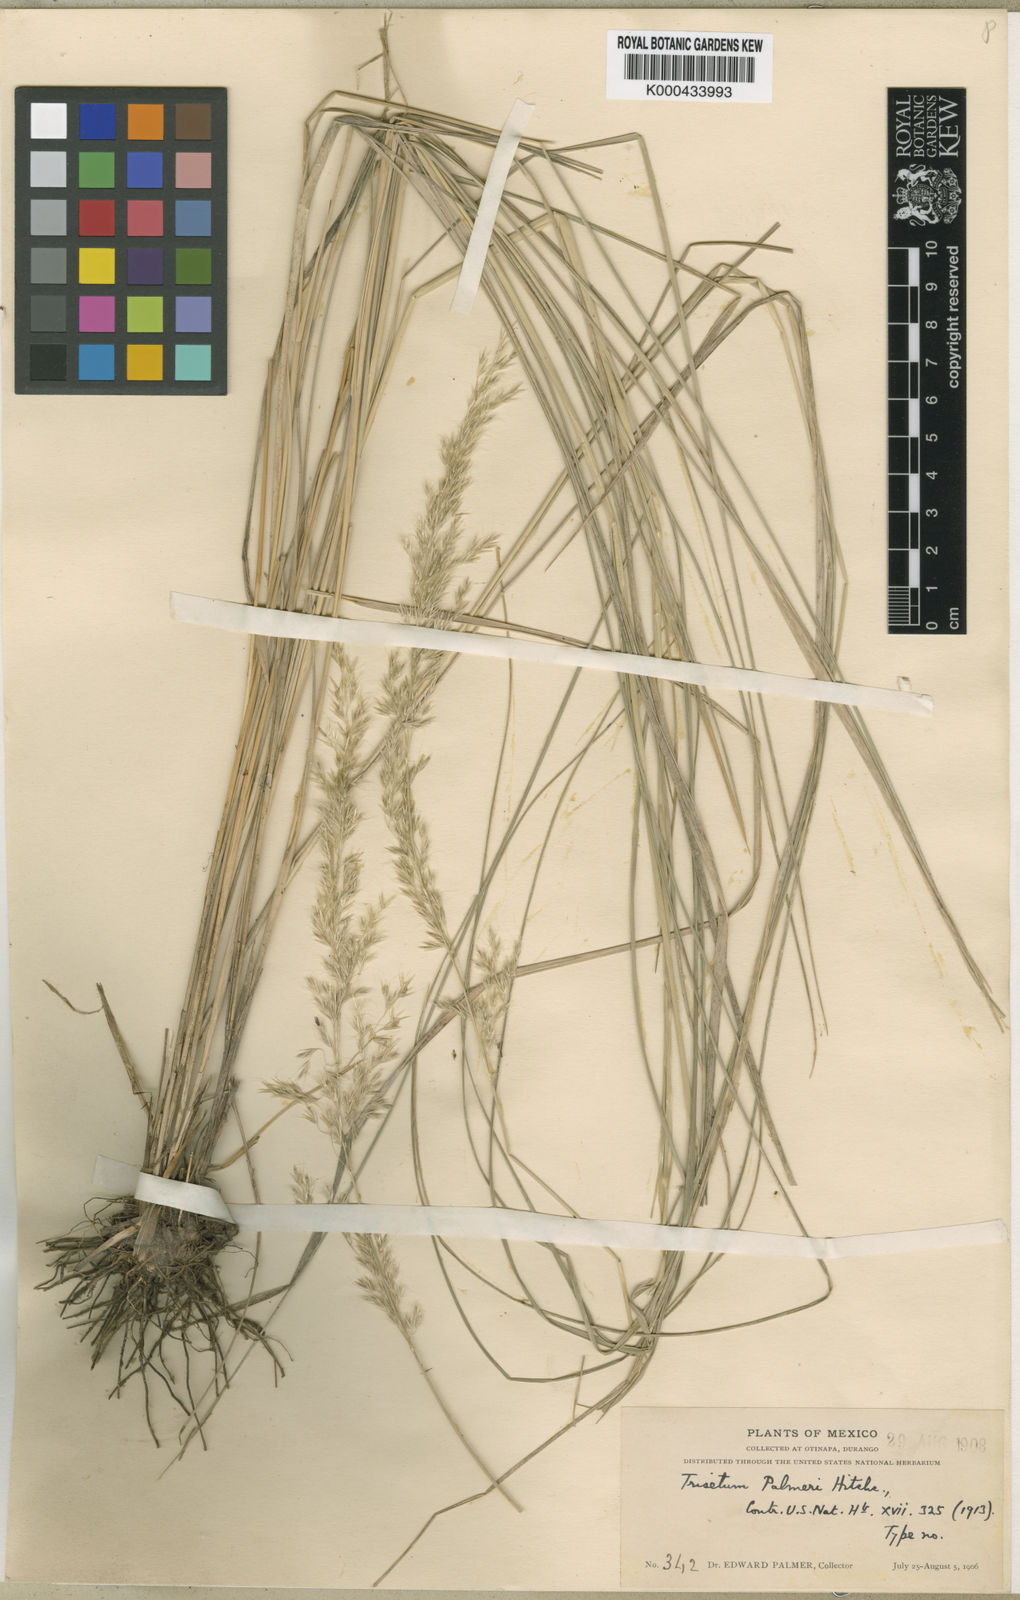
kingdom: Plantae
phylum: Tracheophyta
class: Liliopsida
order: Poales
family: Poaceae
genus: Peyritschia
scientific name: Peyritschia palmeri
